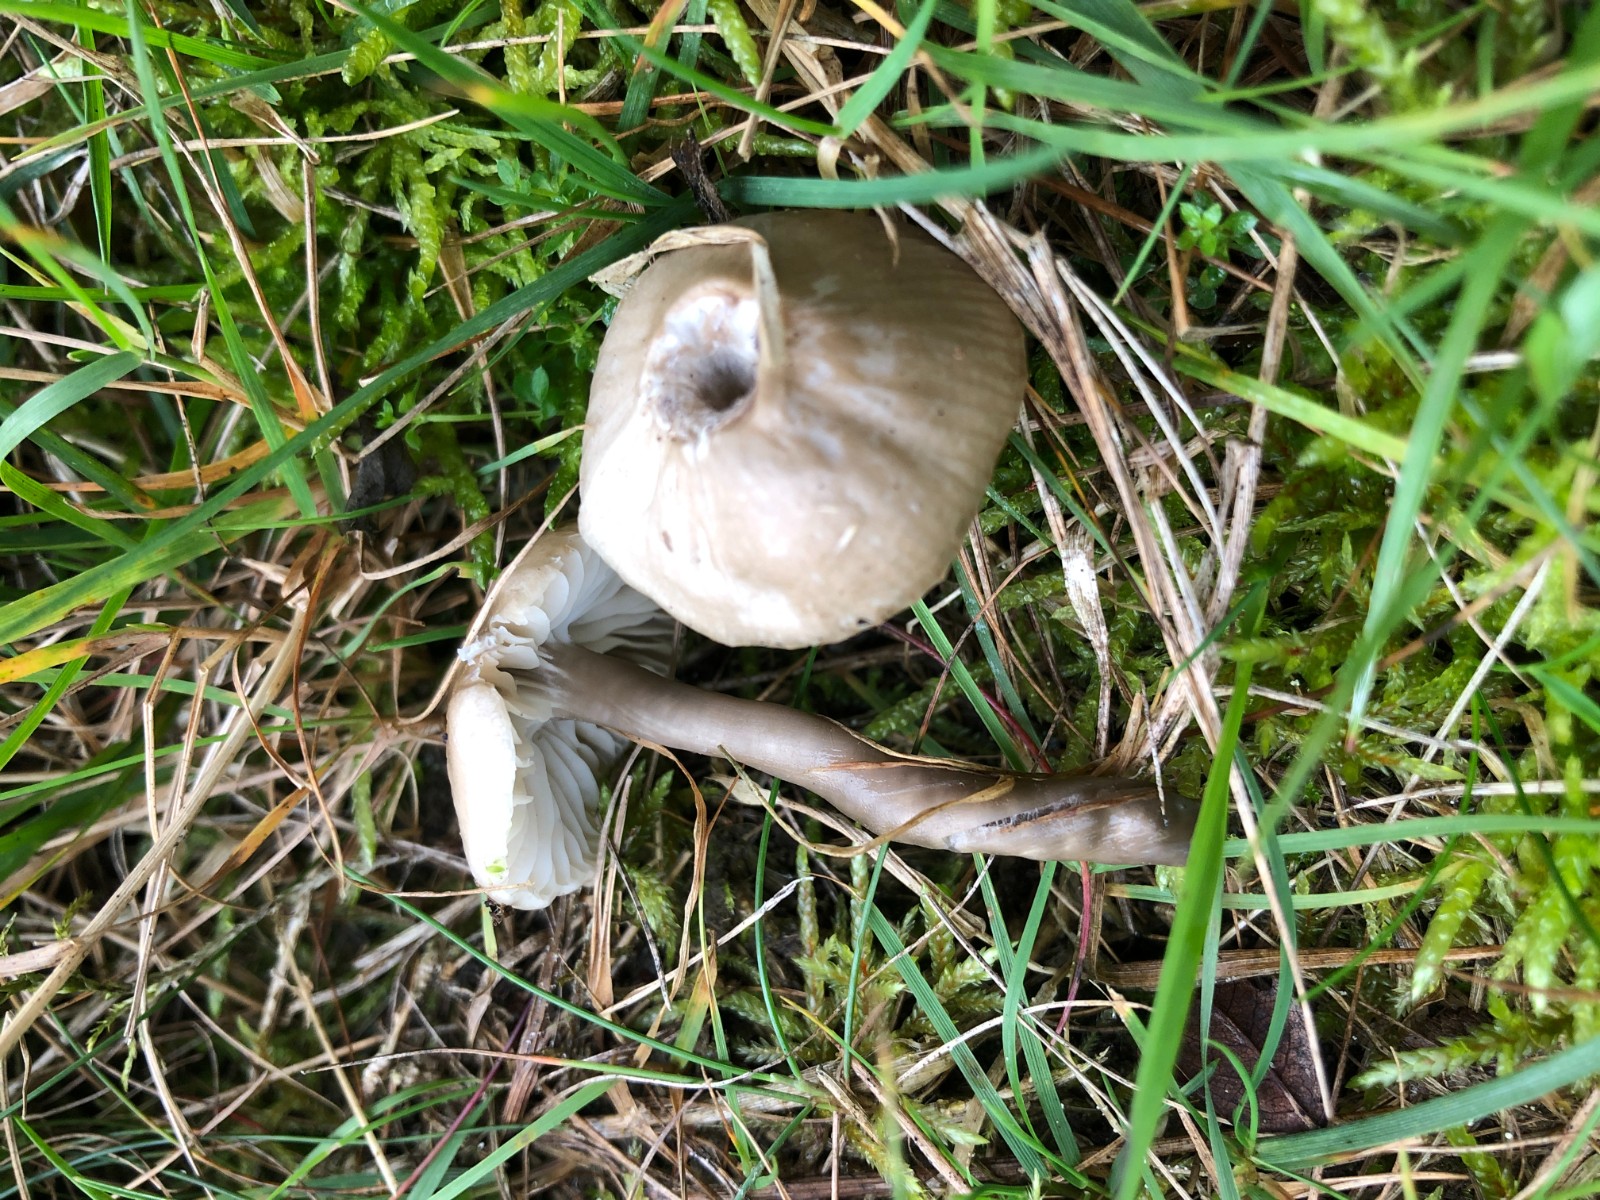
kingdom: Fungi
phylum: Basidiomycota
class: Agaricomycetes
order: Agaricales
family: Hygrophoraceae
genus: Gliophorus
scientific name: Gliophorus irrigatus
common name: slimet vokshat
